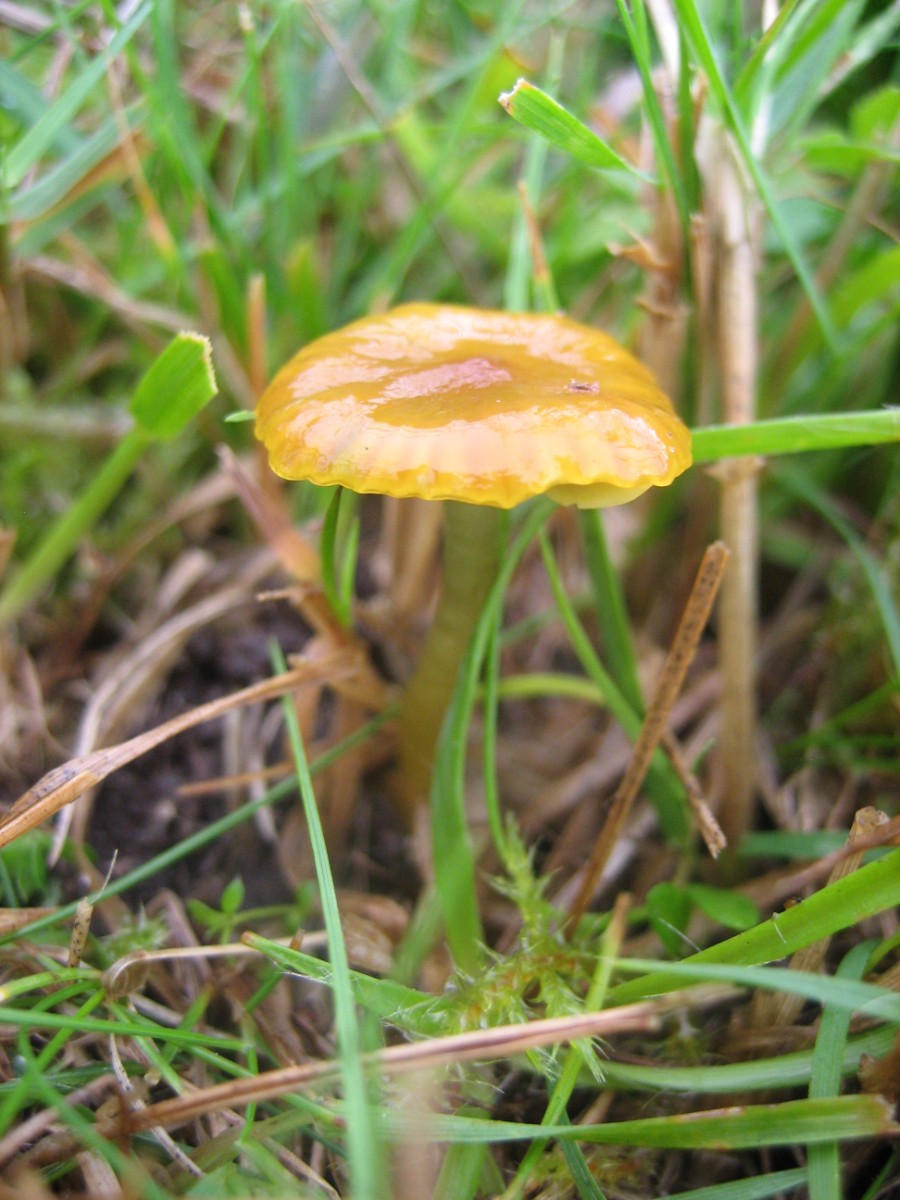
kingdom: Fungi
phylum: Basidiomycota
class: Agaricomycetes
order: Agaricales
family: Hygrophoraceae
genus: Gliophorus
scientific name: Gliophorus psittacinus
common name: papegøje-vokshat
